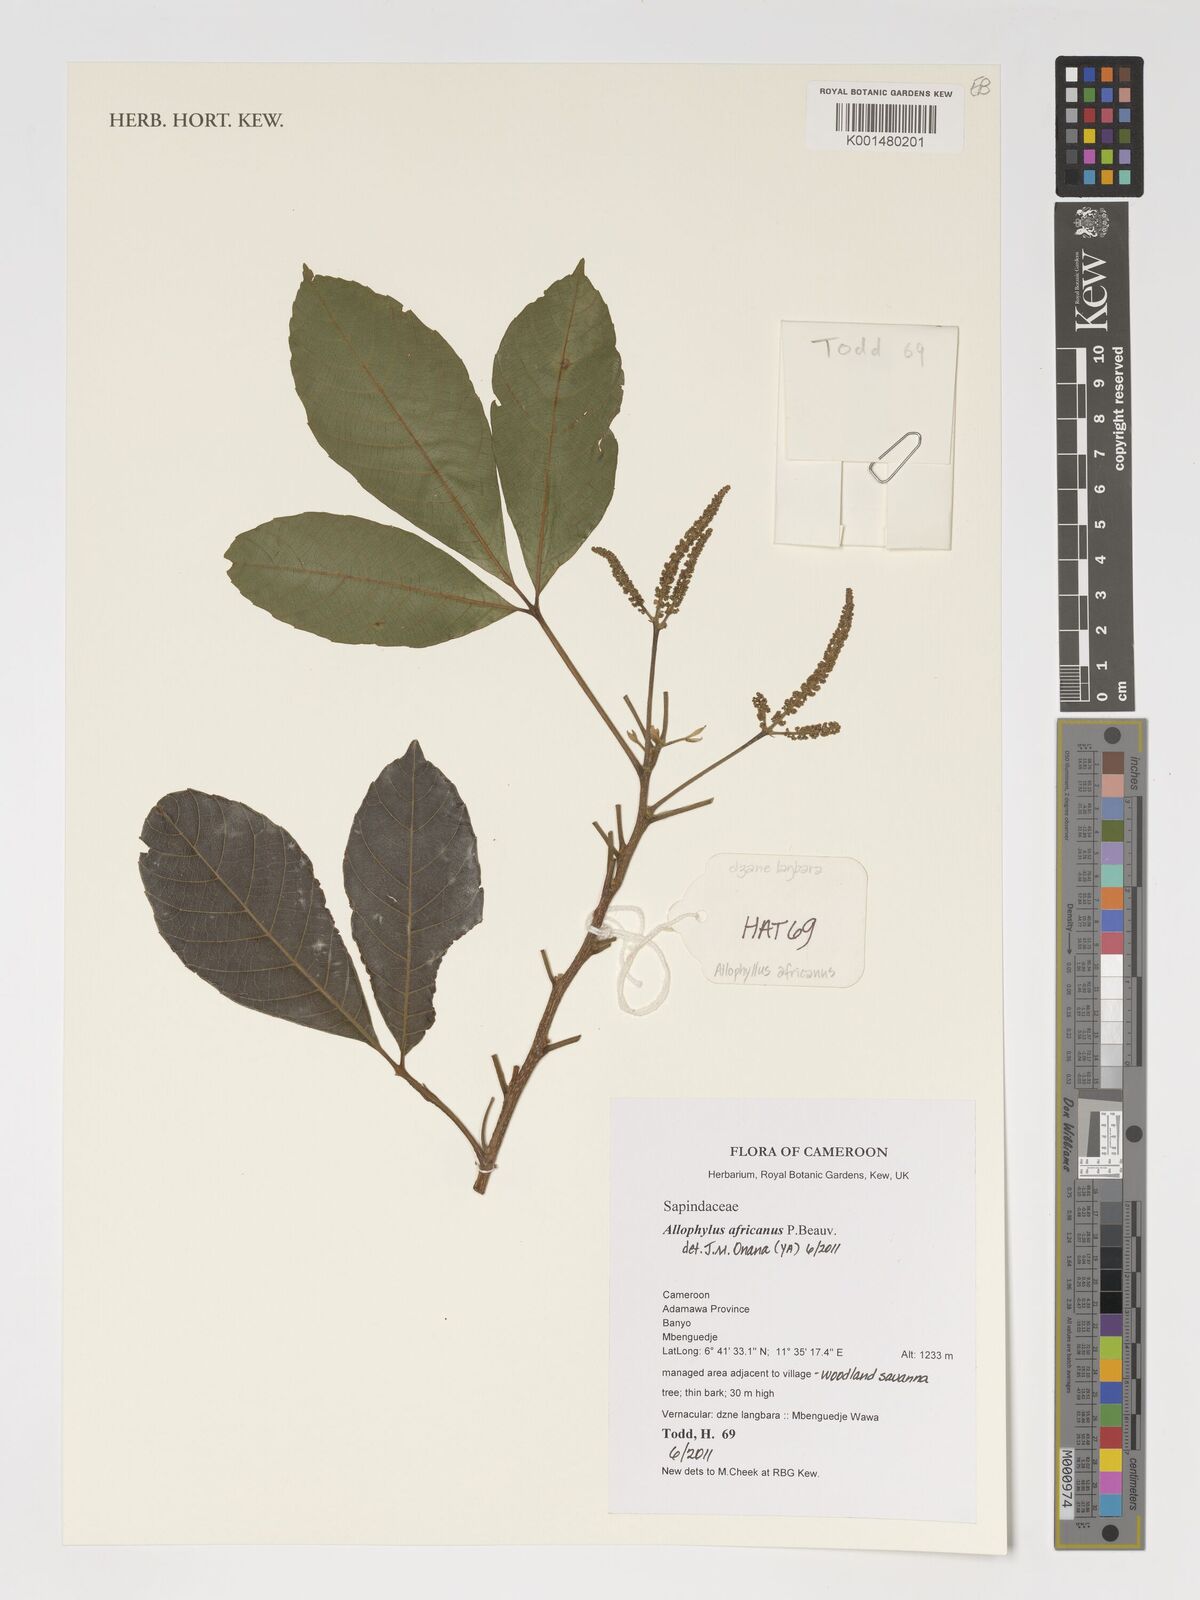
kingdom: Plantae
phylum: Tracheophyta
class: Magnoliopsida
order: Sapindales
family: Sapindaceae
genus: Allophylus
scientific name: Allophylus africanus
